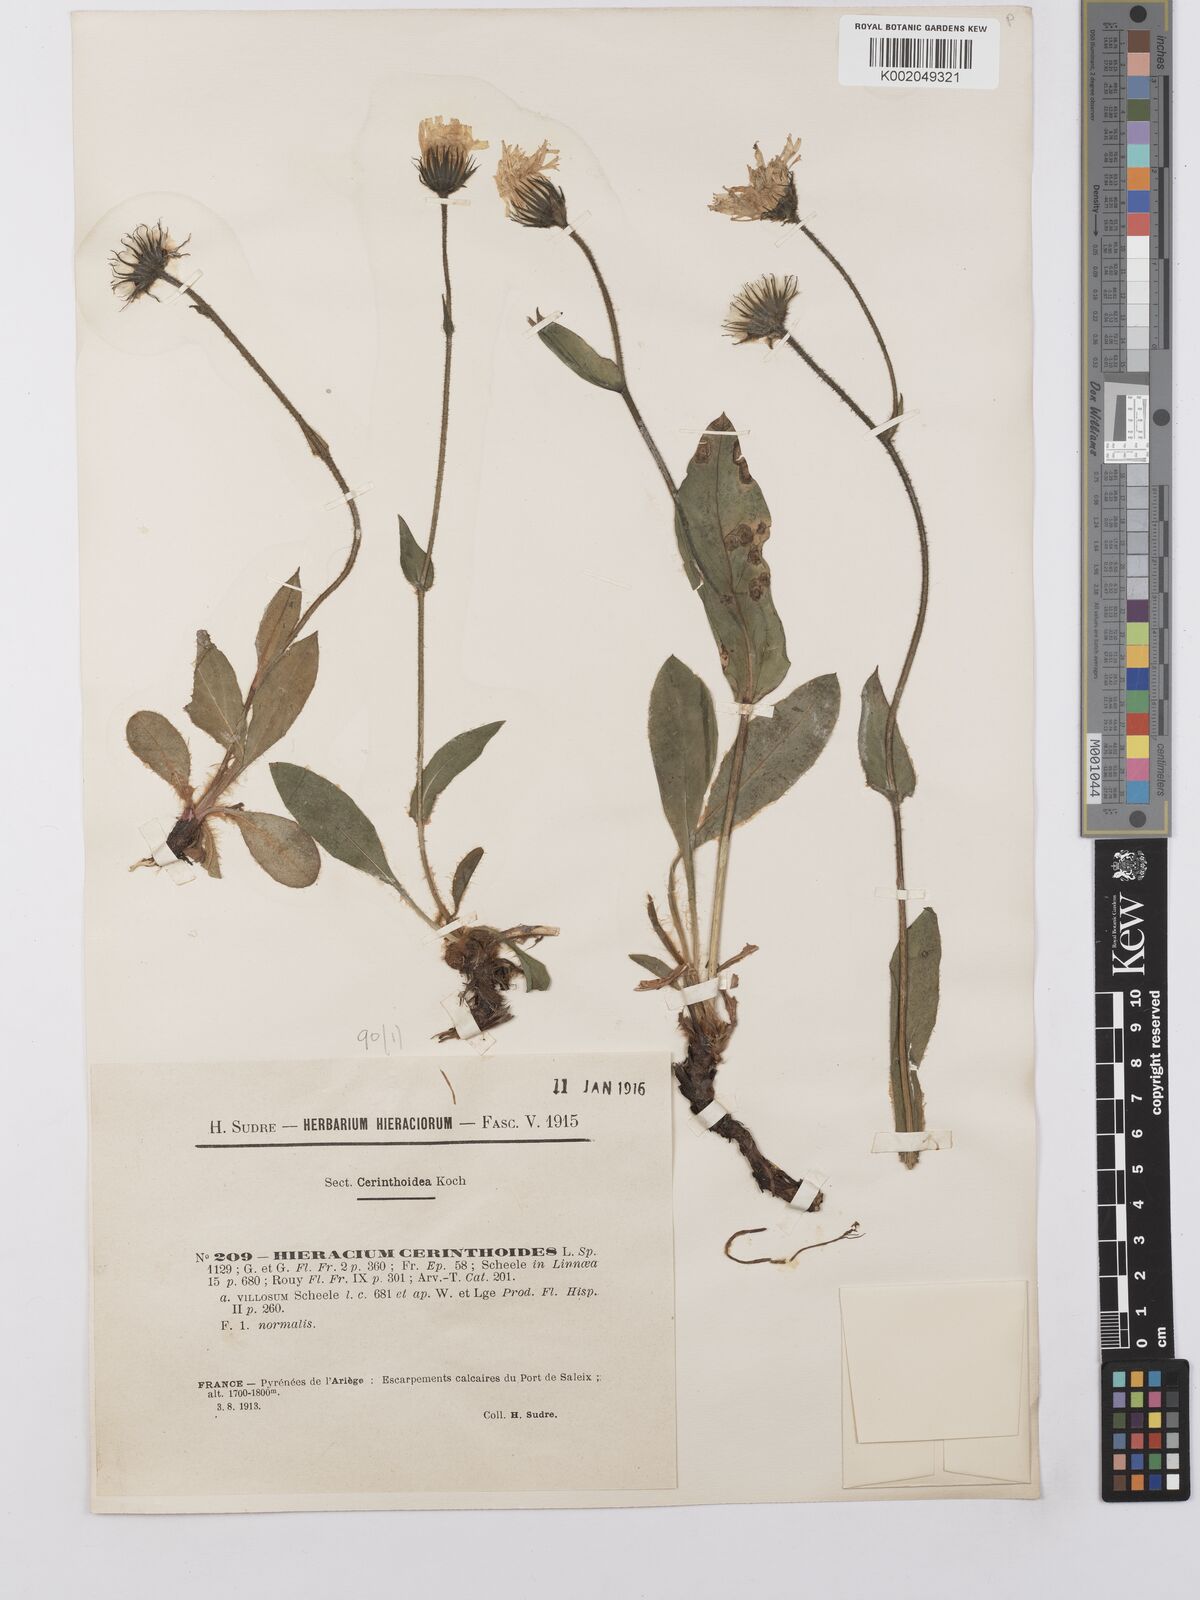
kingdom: Plantae
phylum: Tracheophyta
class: Magnoliopsida
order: Asterales
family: Asteraceae
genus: Hieracium
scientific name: Hieracium cerinthoides
